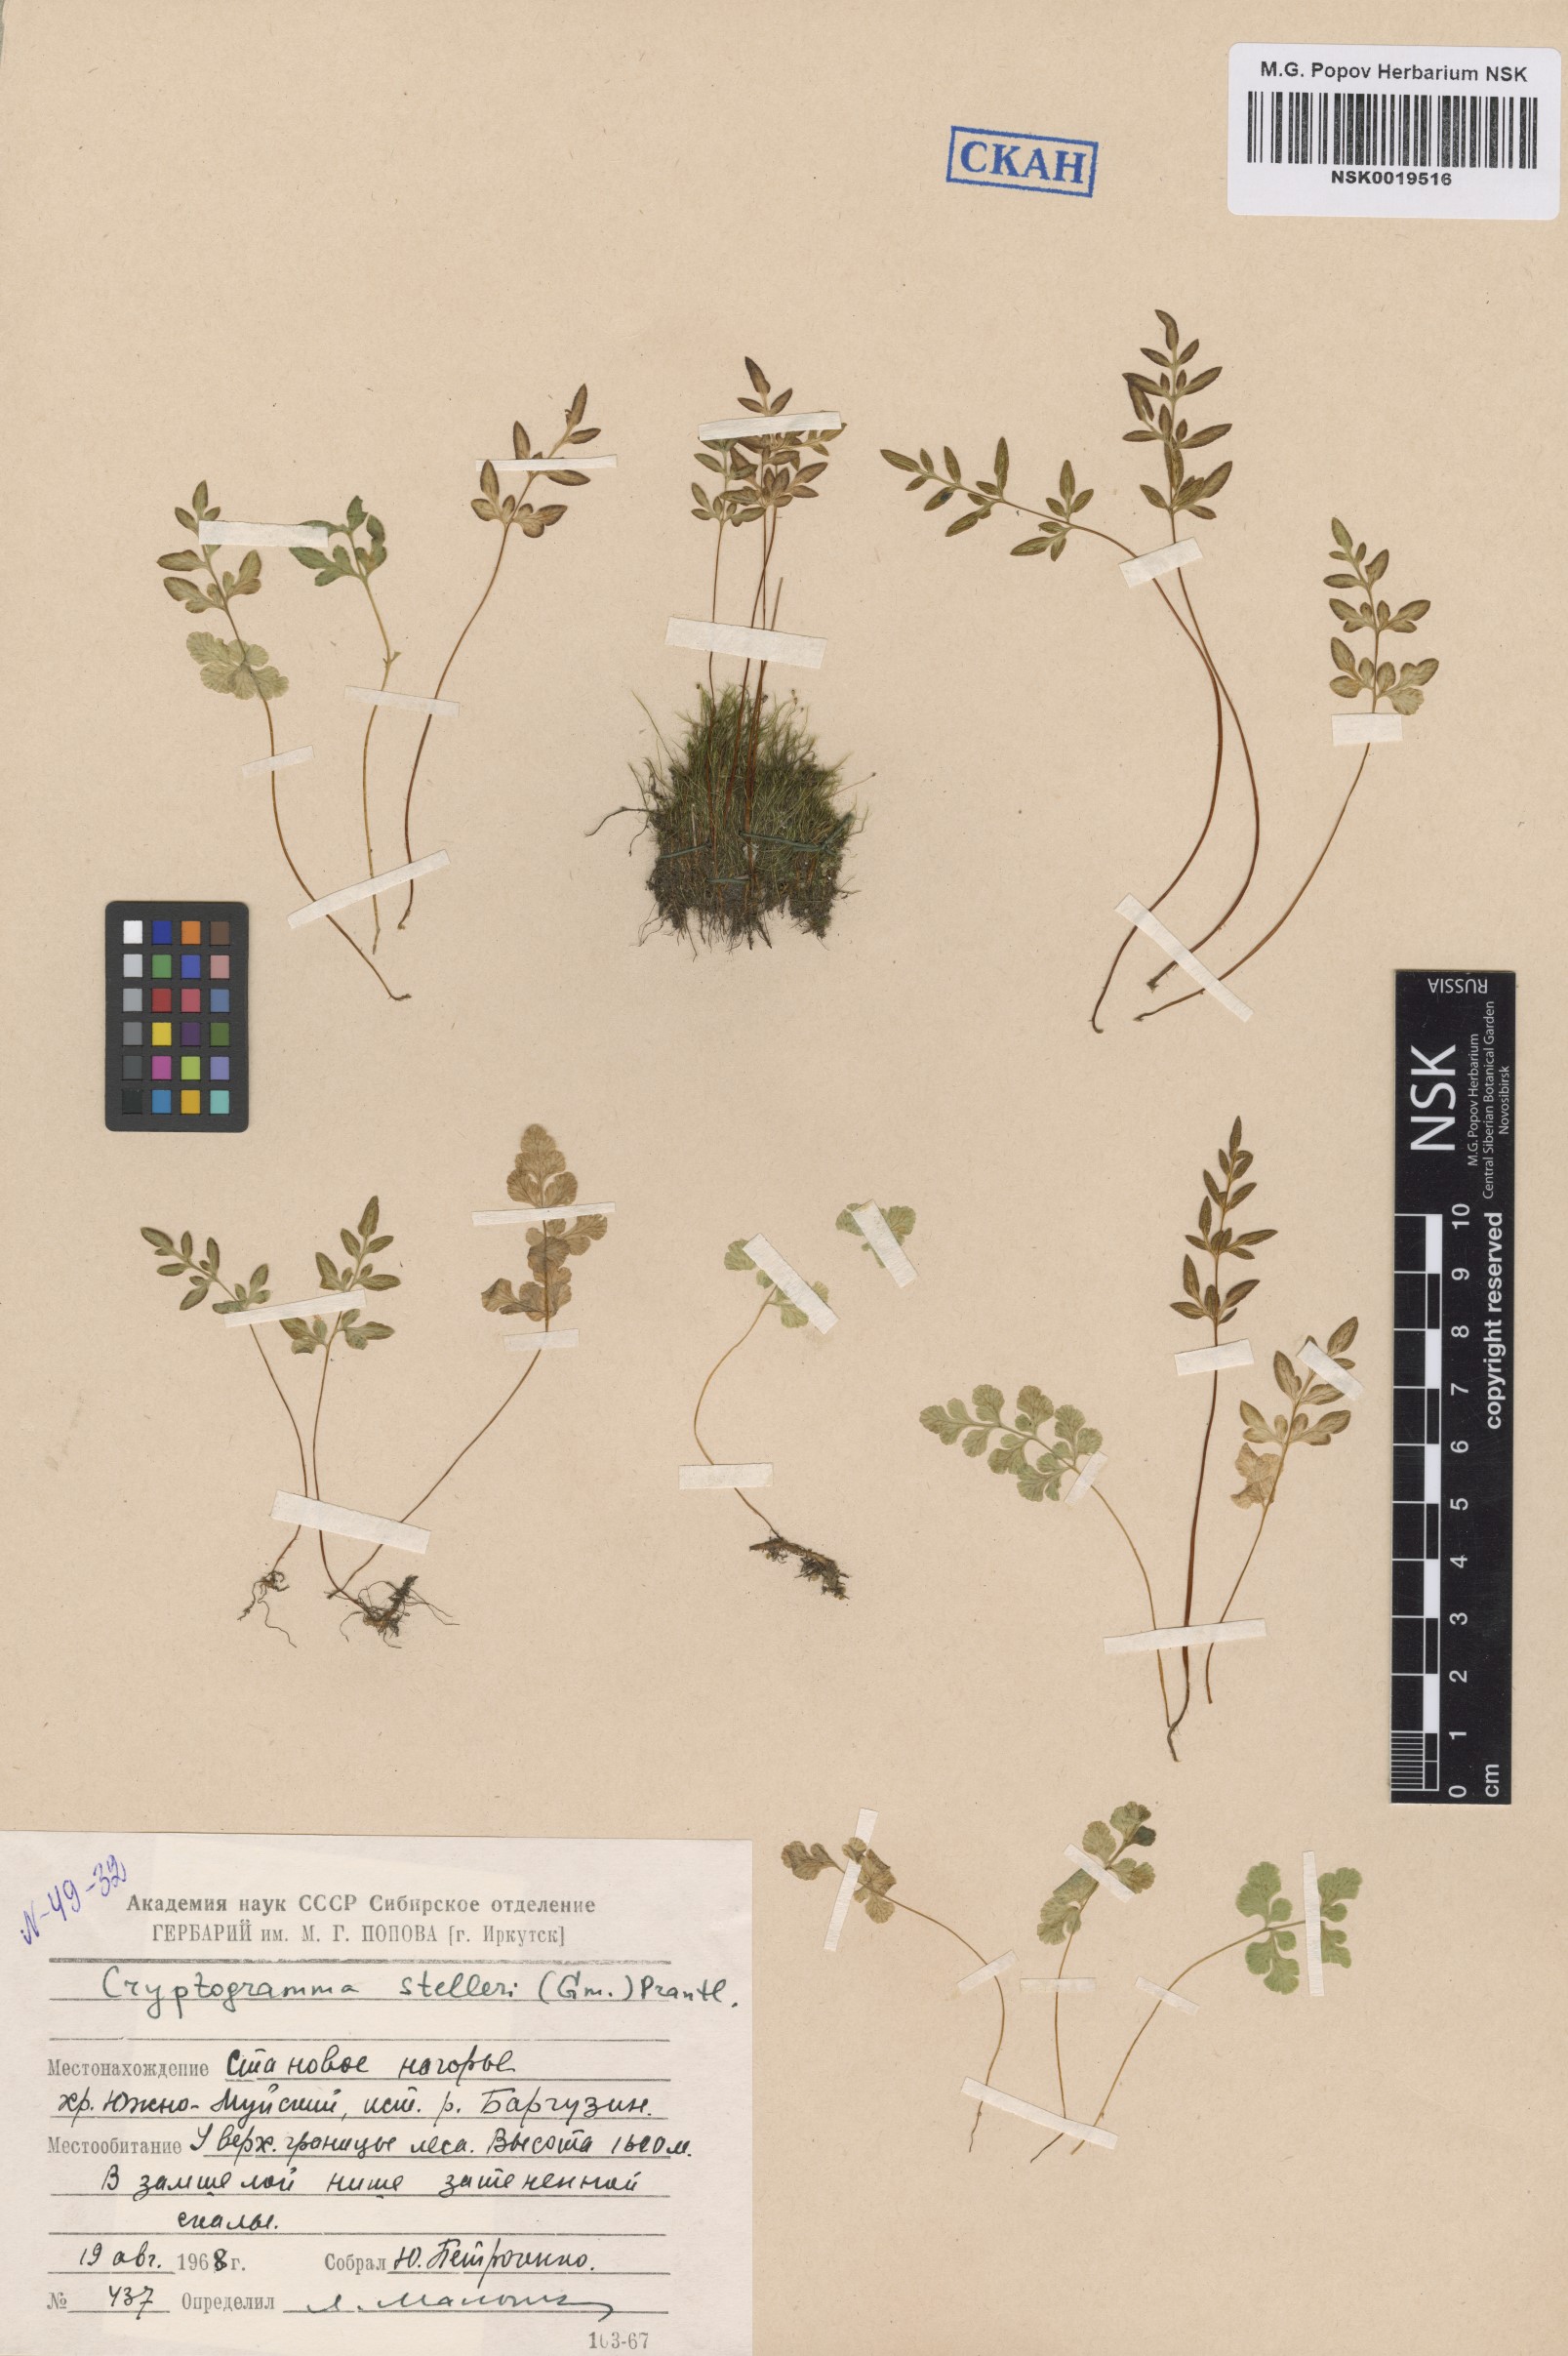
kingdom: Plantae
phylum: Tracheophyta
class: Polypodiopsida
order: Polypodiales
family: Pteridaceae
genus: Cryptogramma
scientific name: Cryptogramma stelleri
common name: Cliff-brake
